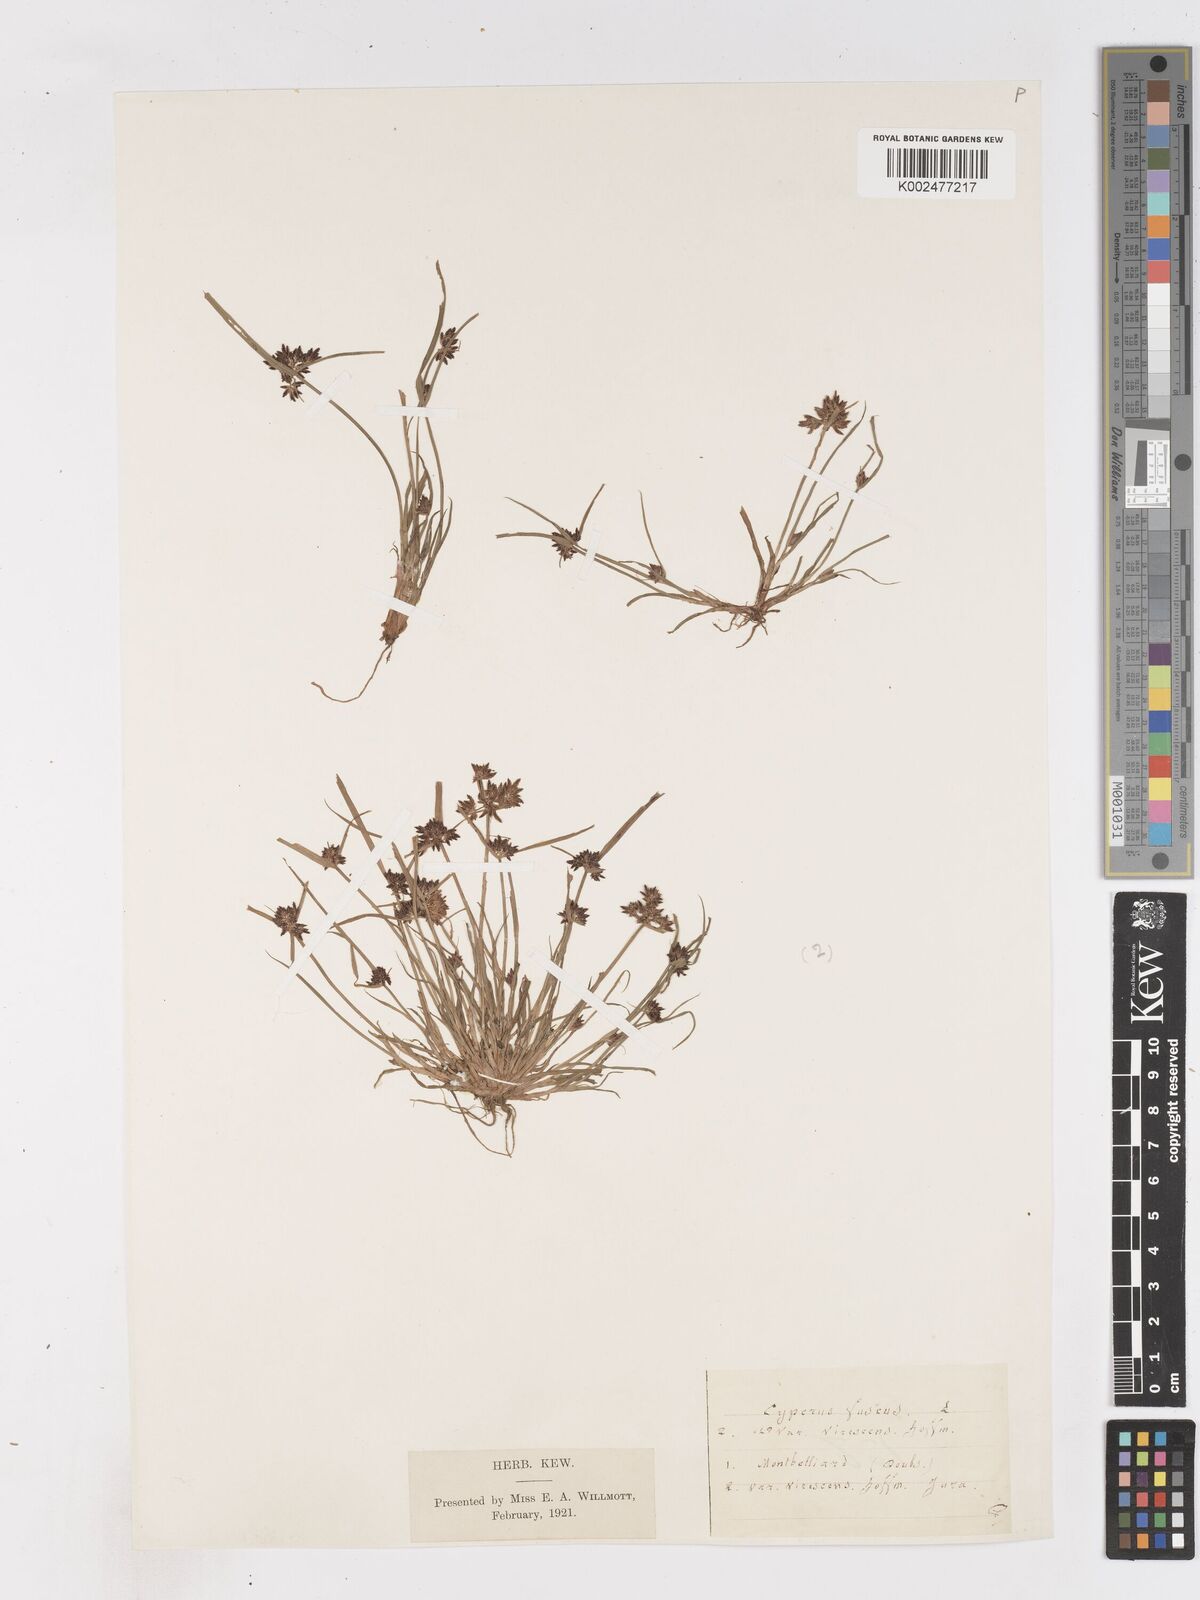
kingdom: Plantae
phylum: Tracheophyta
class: Liliopsida
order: Poales
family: Cyperaceae
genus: Cyperus
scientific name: Cyperus fuscus
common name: Brown galingale
